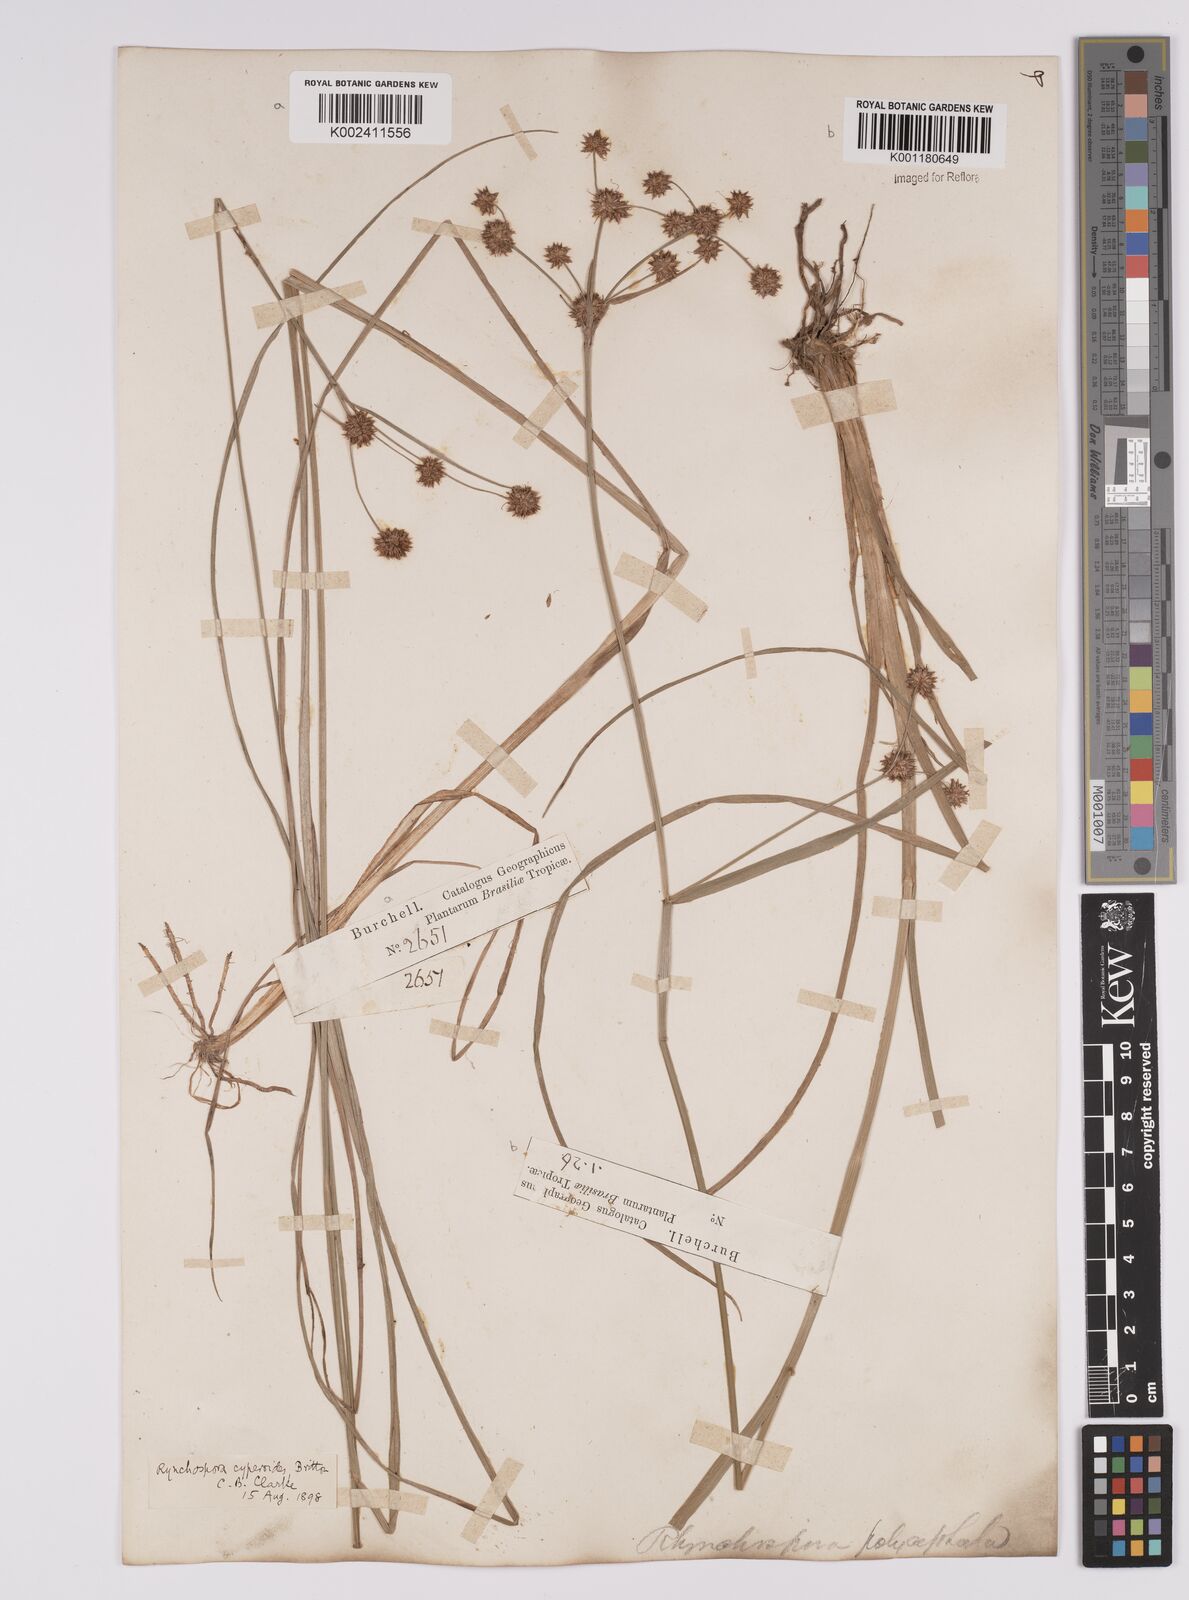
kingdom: Plantae
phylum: Tracheophyta
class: Liliopsida
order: Poales
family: Cyperaceae
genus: Rhynchospora
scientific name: Rhynchospora holoschoenoides
